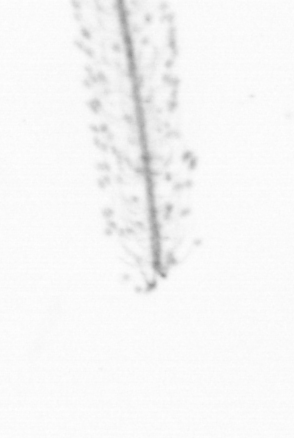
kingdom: Chromista
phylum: Ochrophyta
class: Bacillariophyceae
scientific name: Bacillariophyceae
